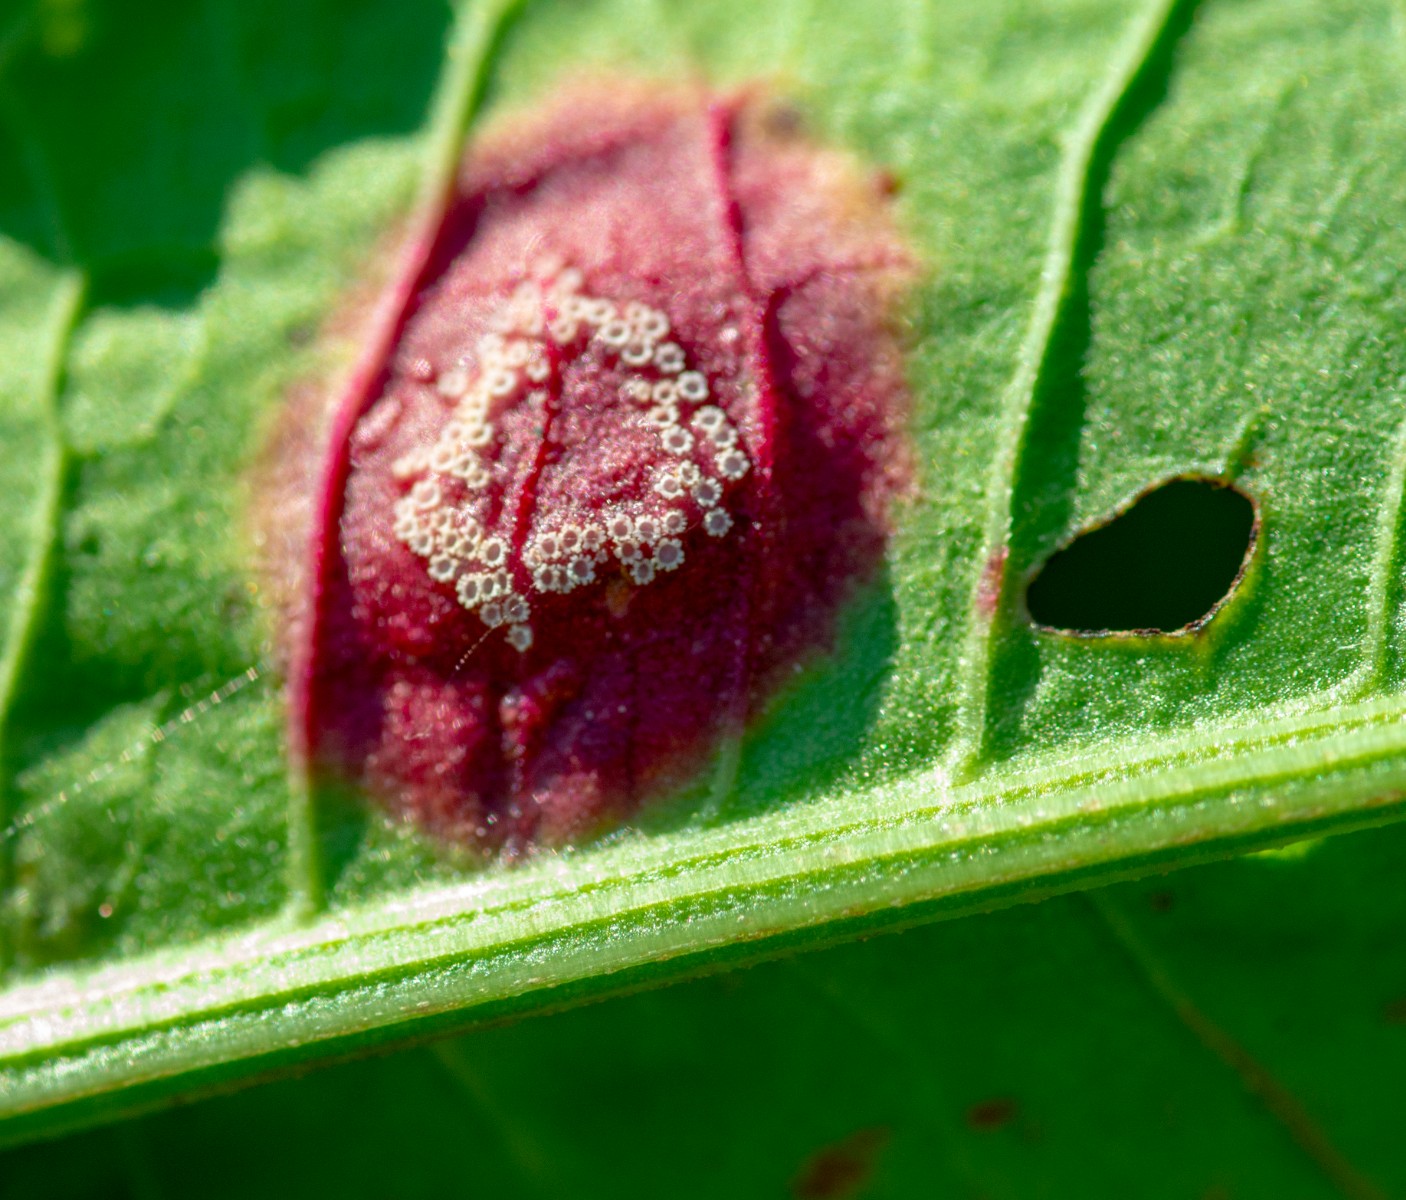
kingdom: Fungi
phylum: Basidiomycota
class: Pucciniomycetes
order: Pucciniales
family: Pucciniaceae
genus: Puccinia
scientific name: Puccinia phragmitis
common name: tagrør-tvecellerust
